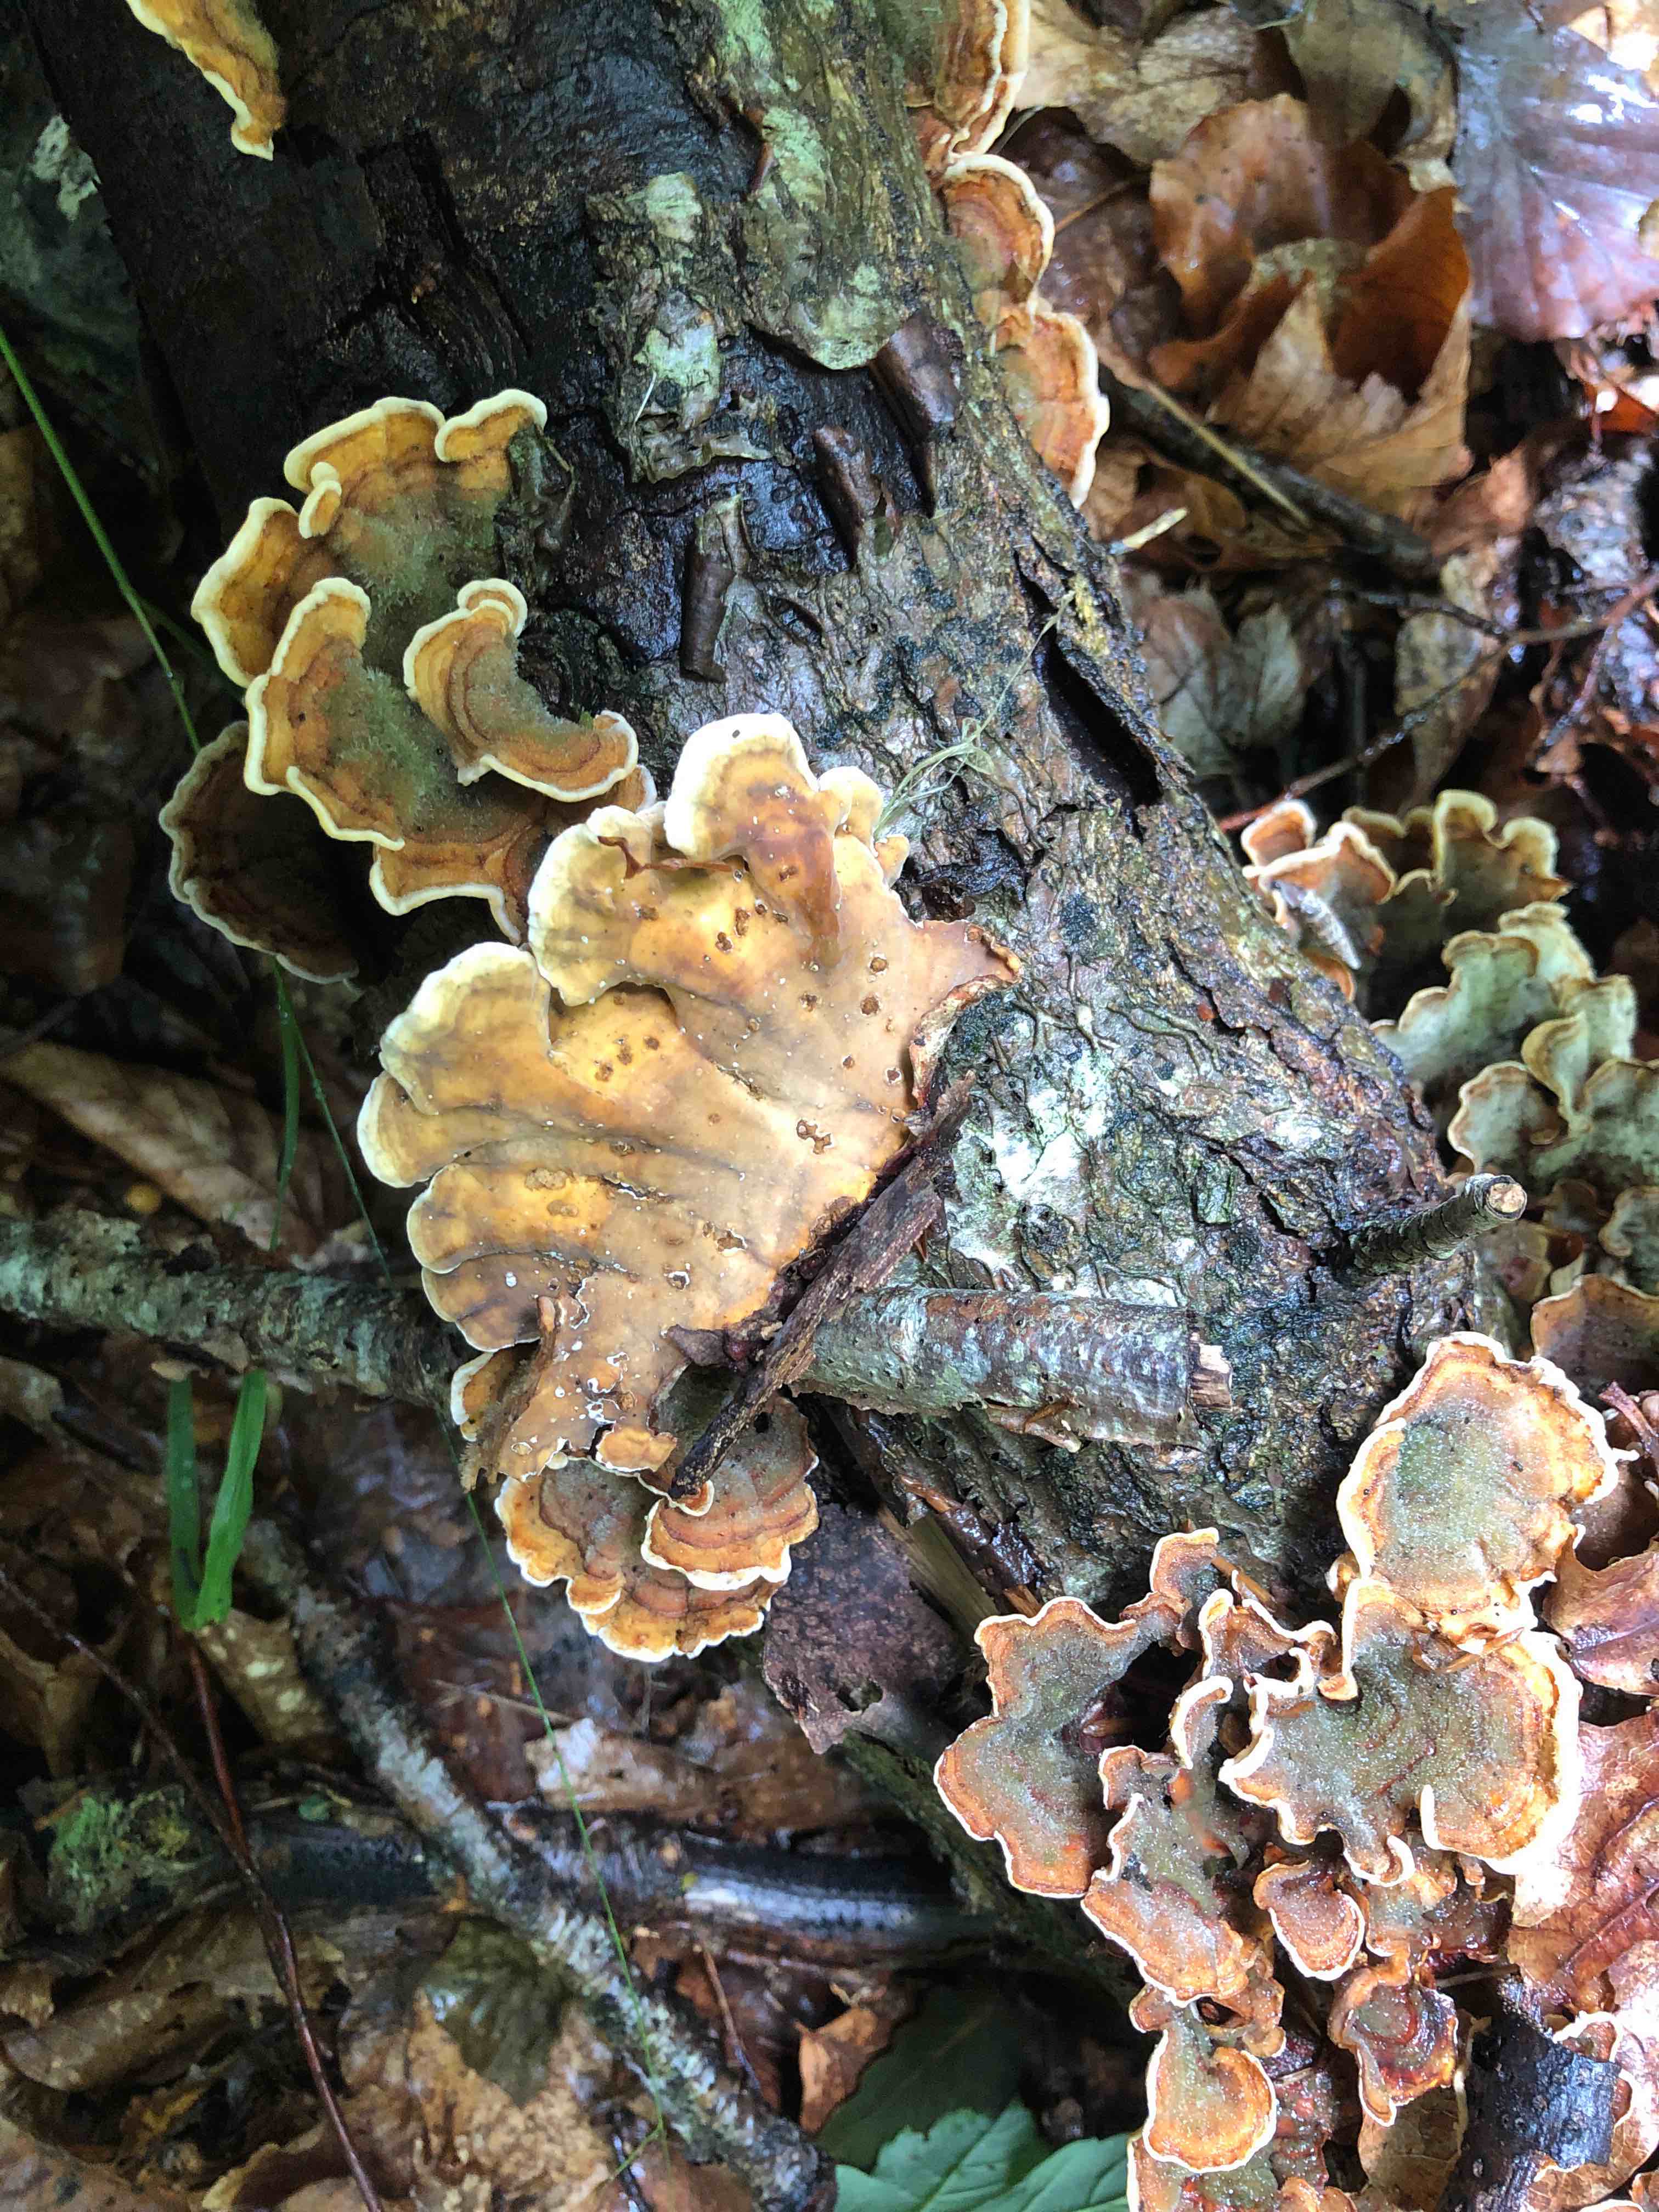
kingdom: Fungi
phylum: Basidiomycota
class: Agaricomycetes
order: Russulales
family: Stereaceae
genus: Stereum
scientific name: Stereum subtomentosum
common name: smuk lædersvamp
